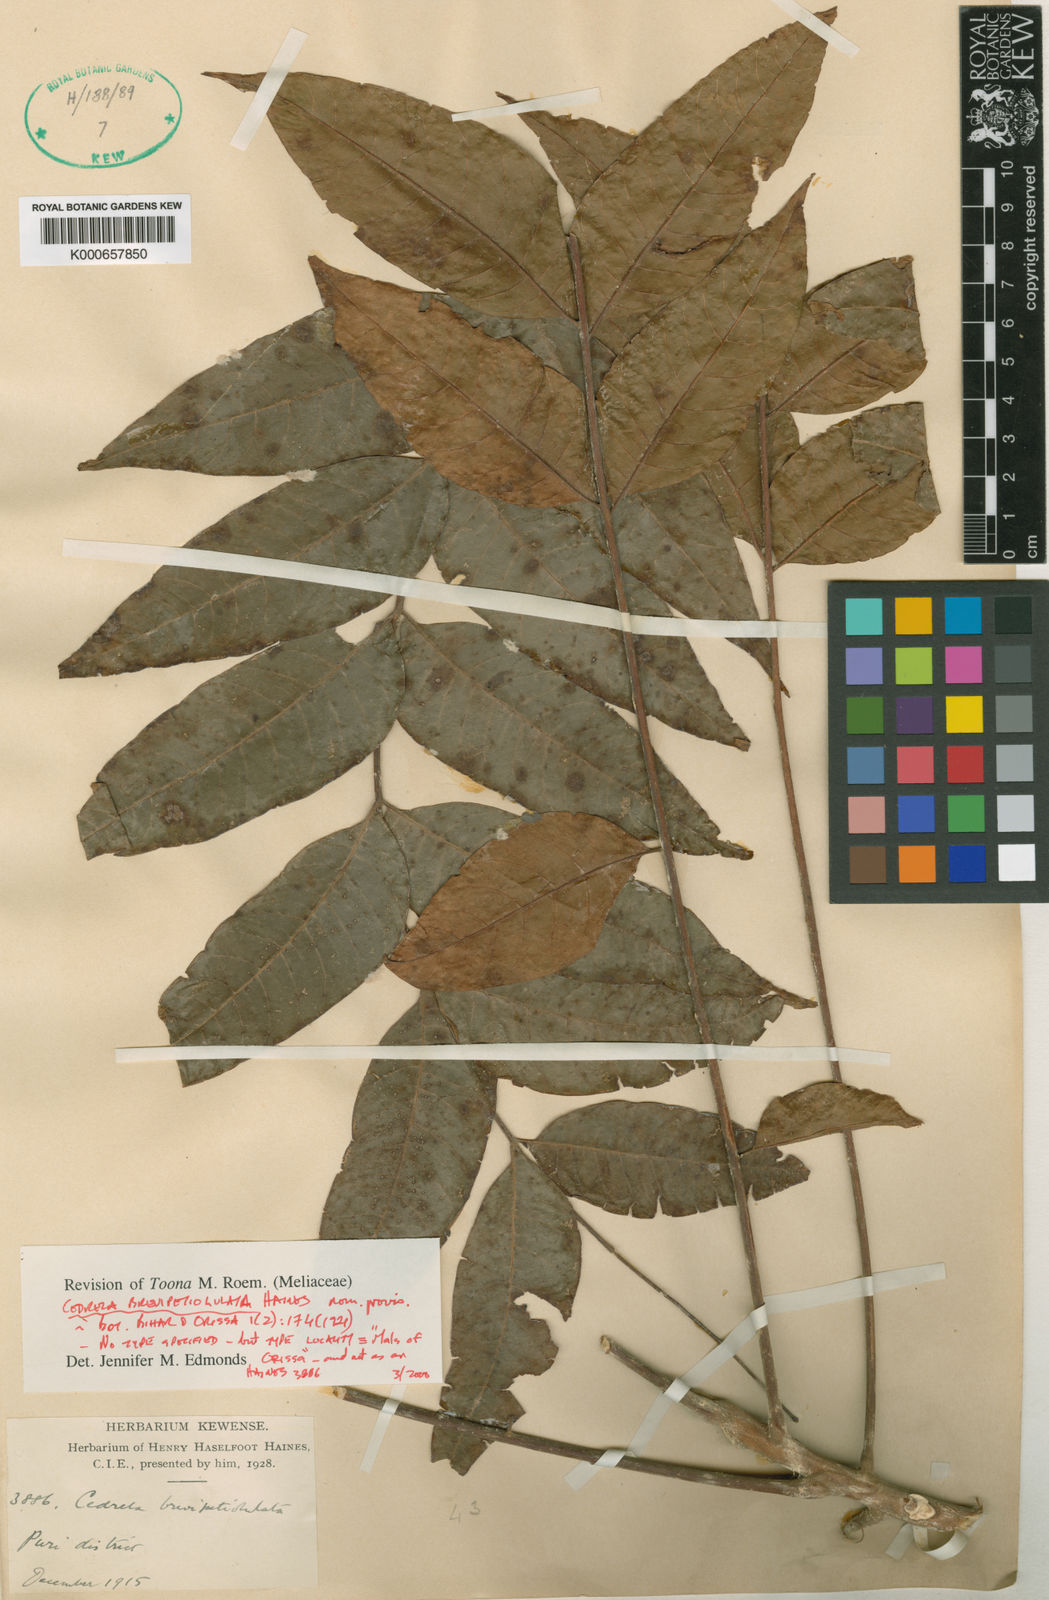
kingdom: Plantae
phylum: Tracheophyta
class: Magnoliopsida
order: Sapindales
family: Meliaceae
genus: Toona
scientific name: Toona
